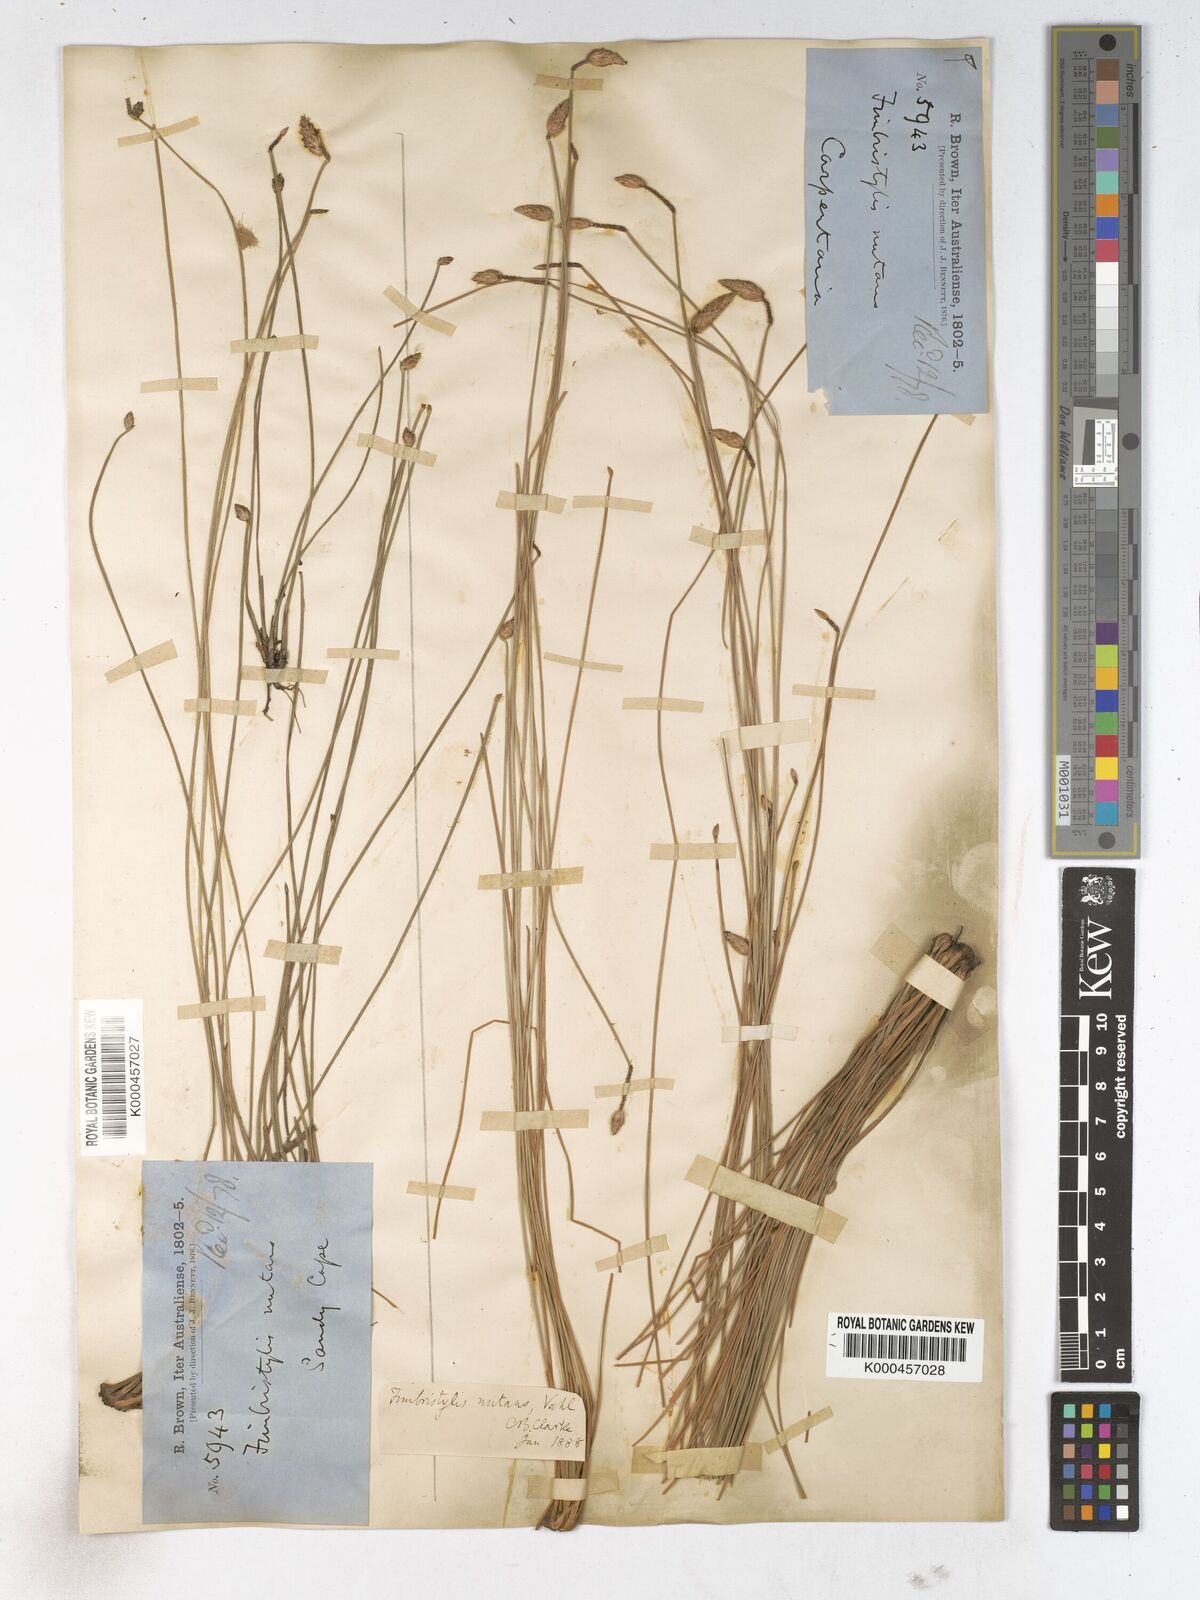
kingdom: Plantae
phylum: Tracheophyta
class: Liliopsida
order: Poales
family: Cyperaceae
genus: Fimbristylis
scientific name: Fimbristylis nutans
